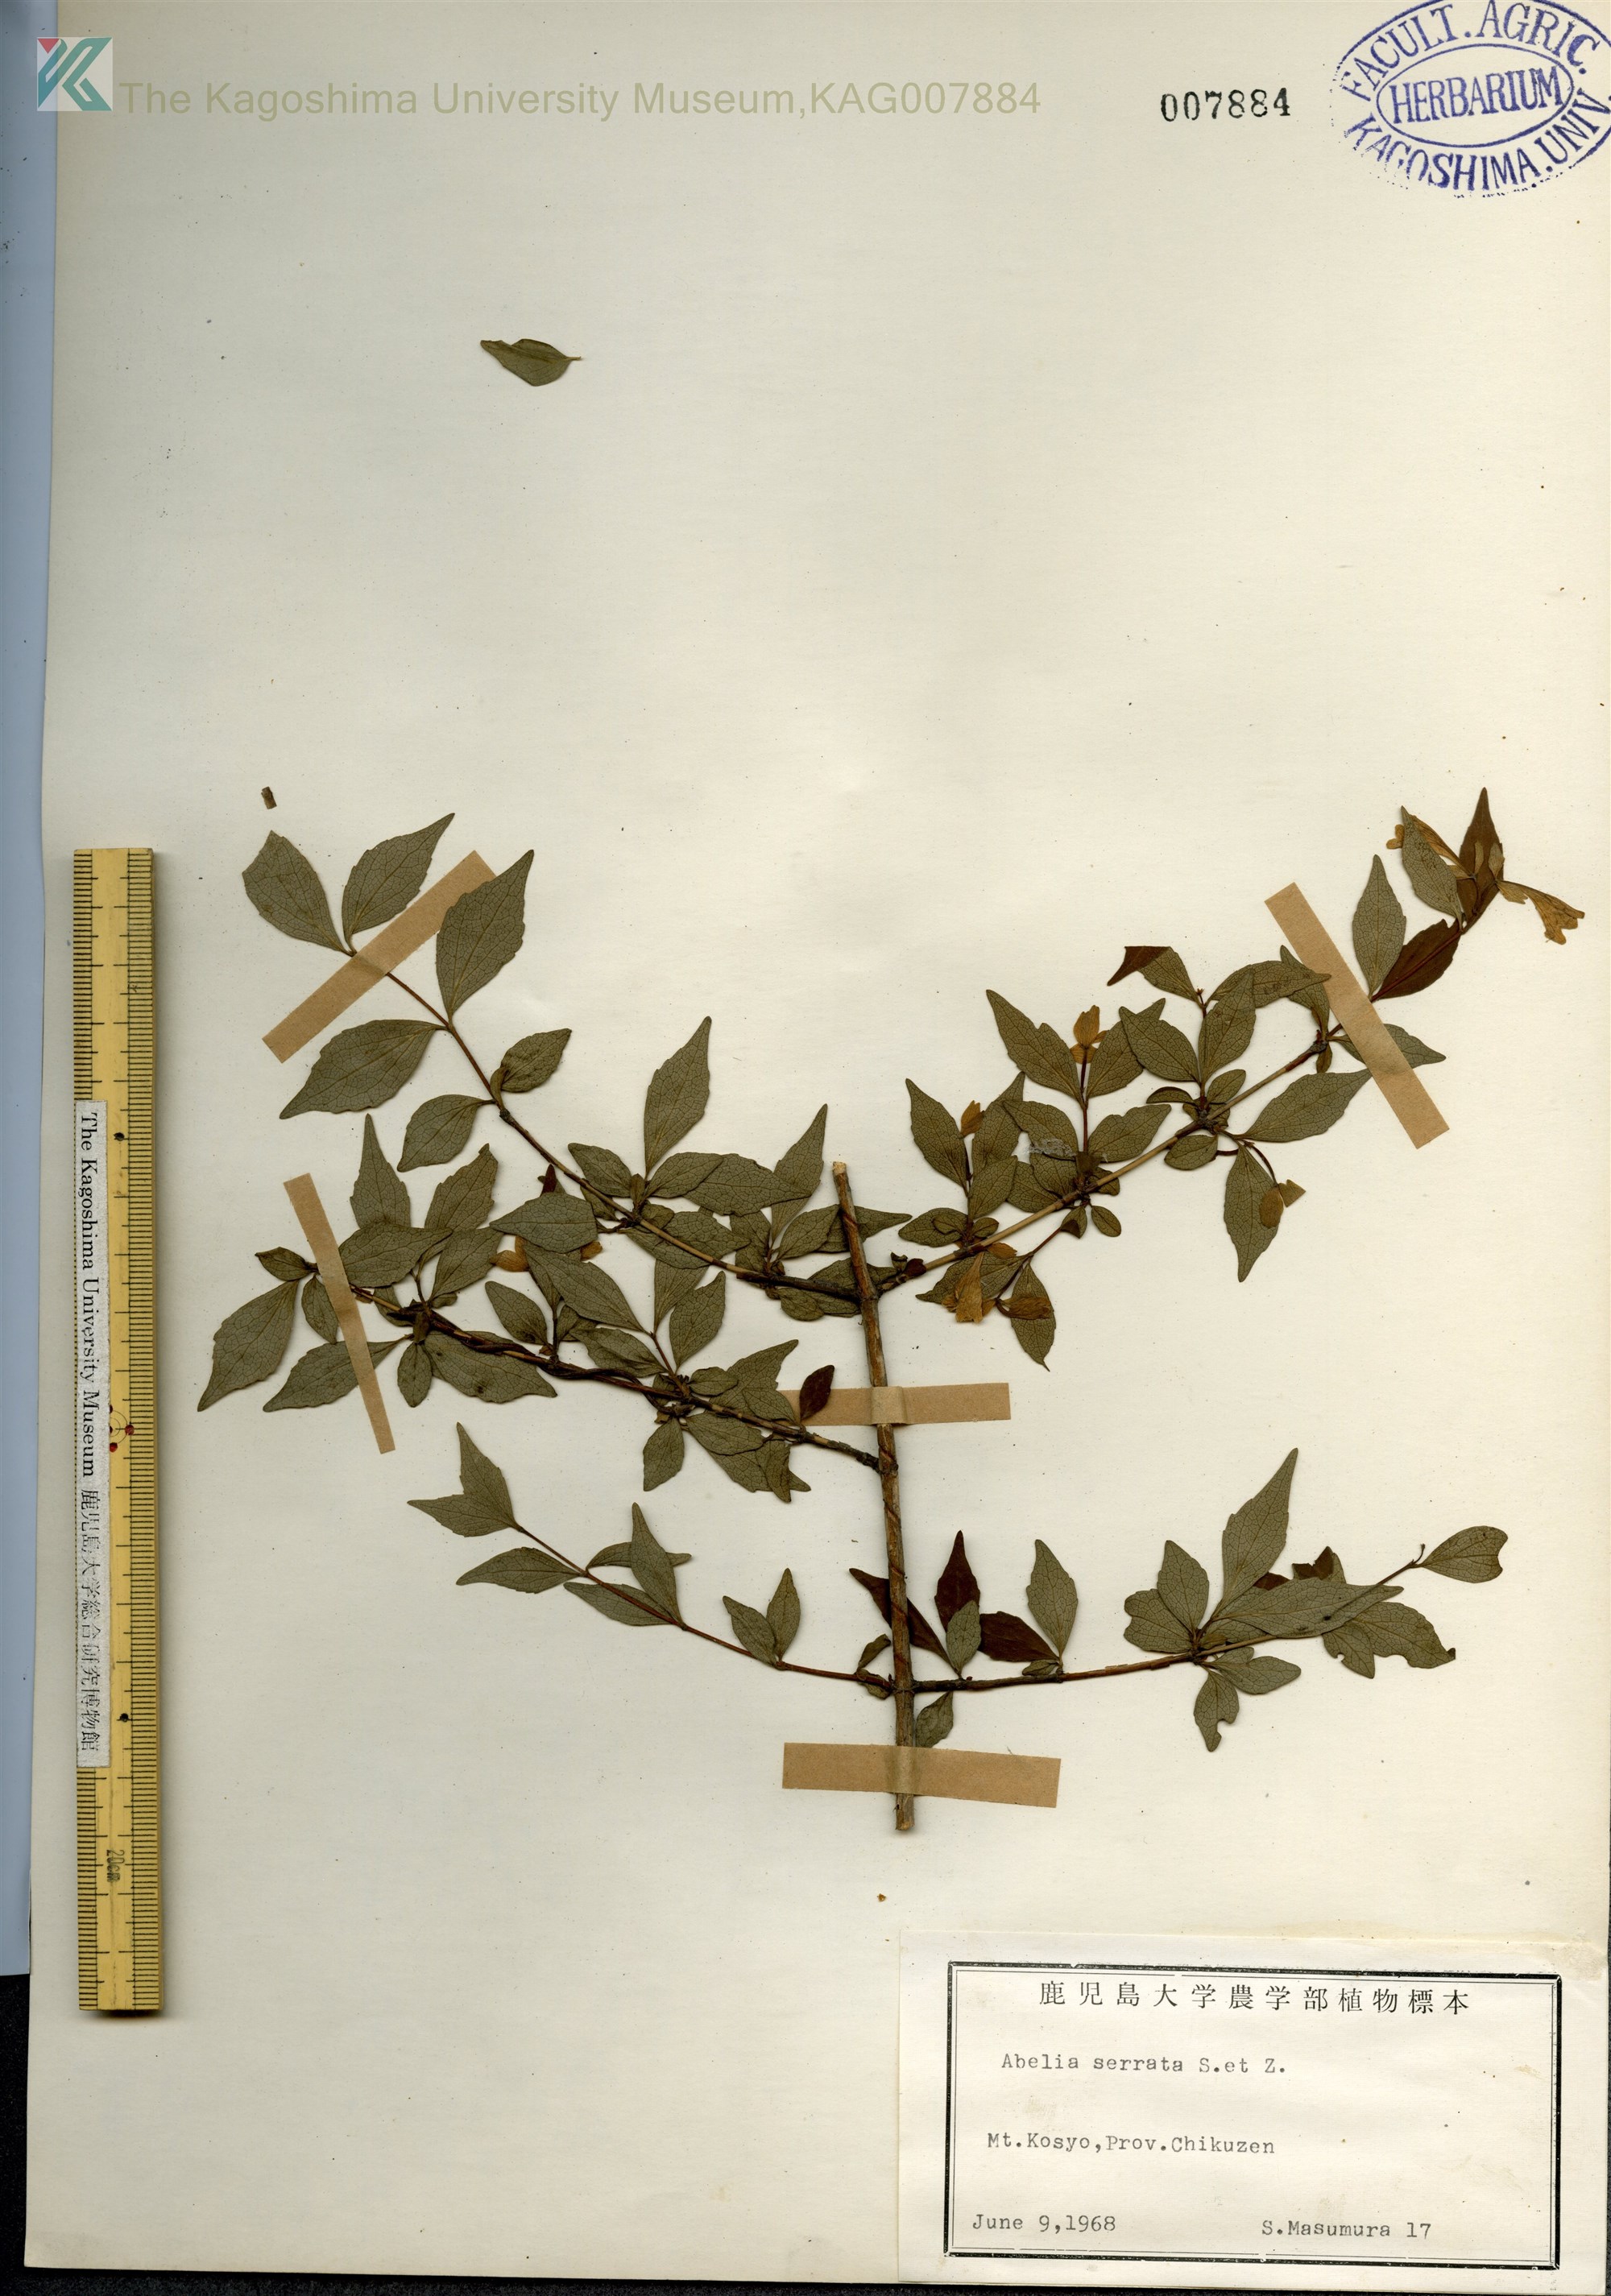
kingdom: Plantae
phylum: Tracheophyta
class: Magnoliopsida
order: Dipsacales
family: Caprifoliaceae
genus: Diabelia
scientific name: Diabelia serrata
